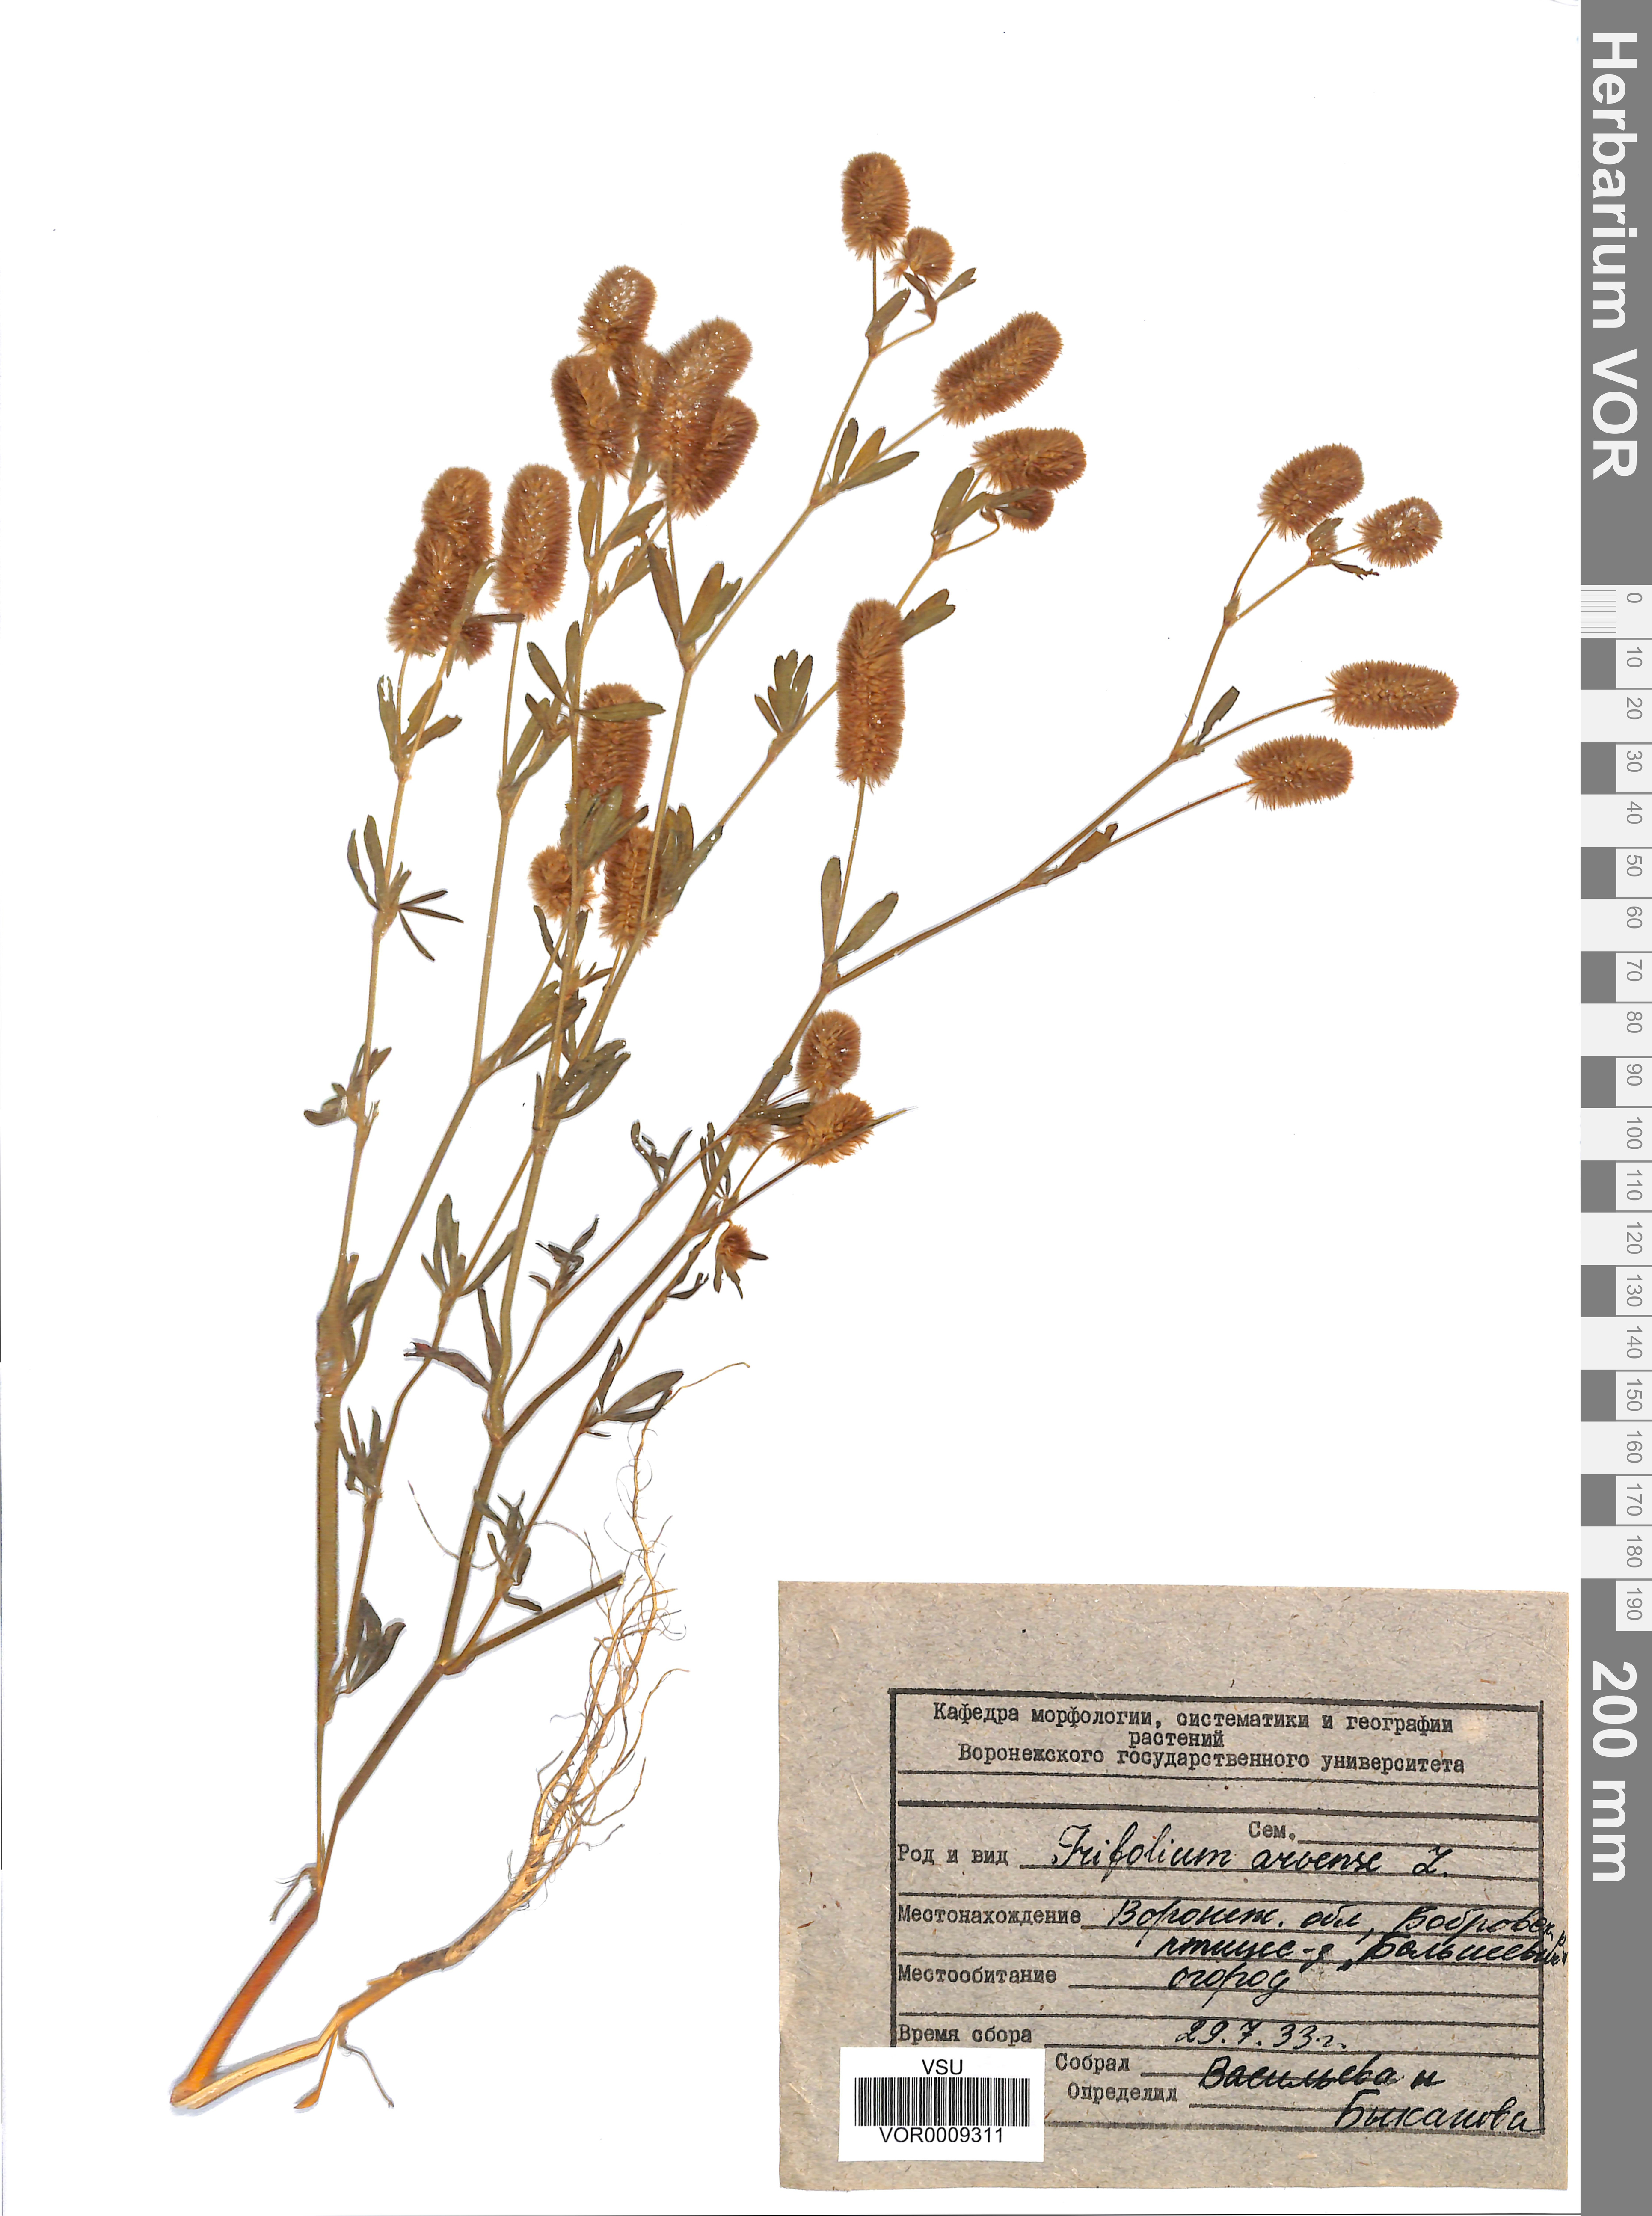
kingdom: Plantae
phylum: Tracheophyta
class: Magnoliopsida
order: Fabales
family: Fabaceae
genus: Trifolium
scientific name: Trifolium arvense
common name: Hare's-foot clover
